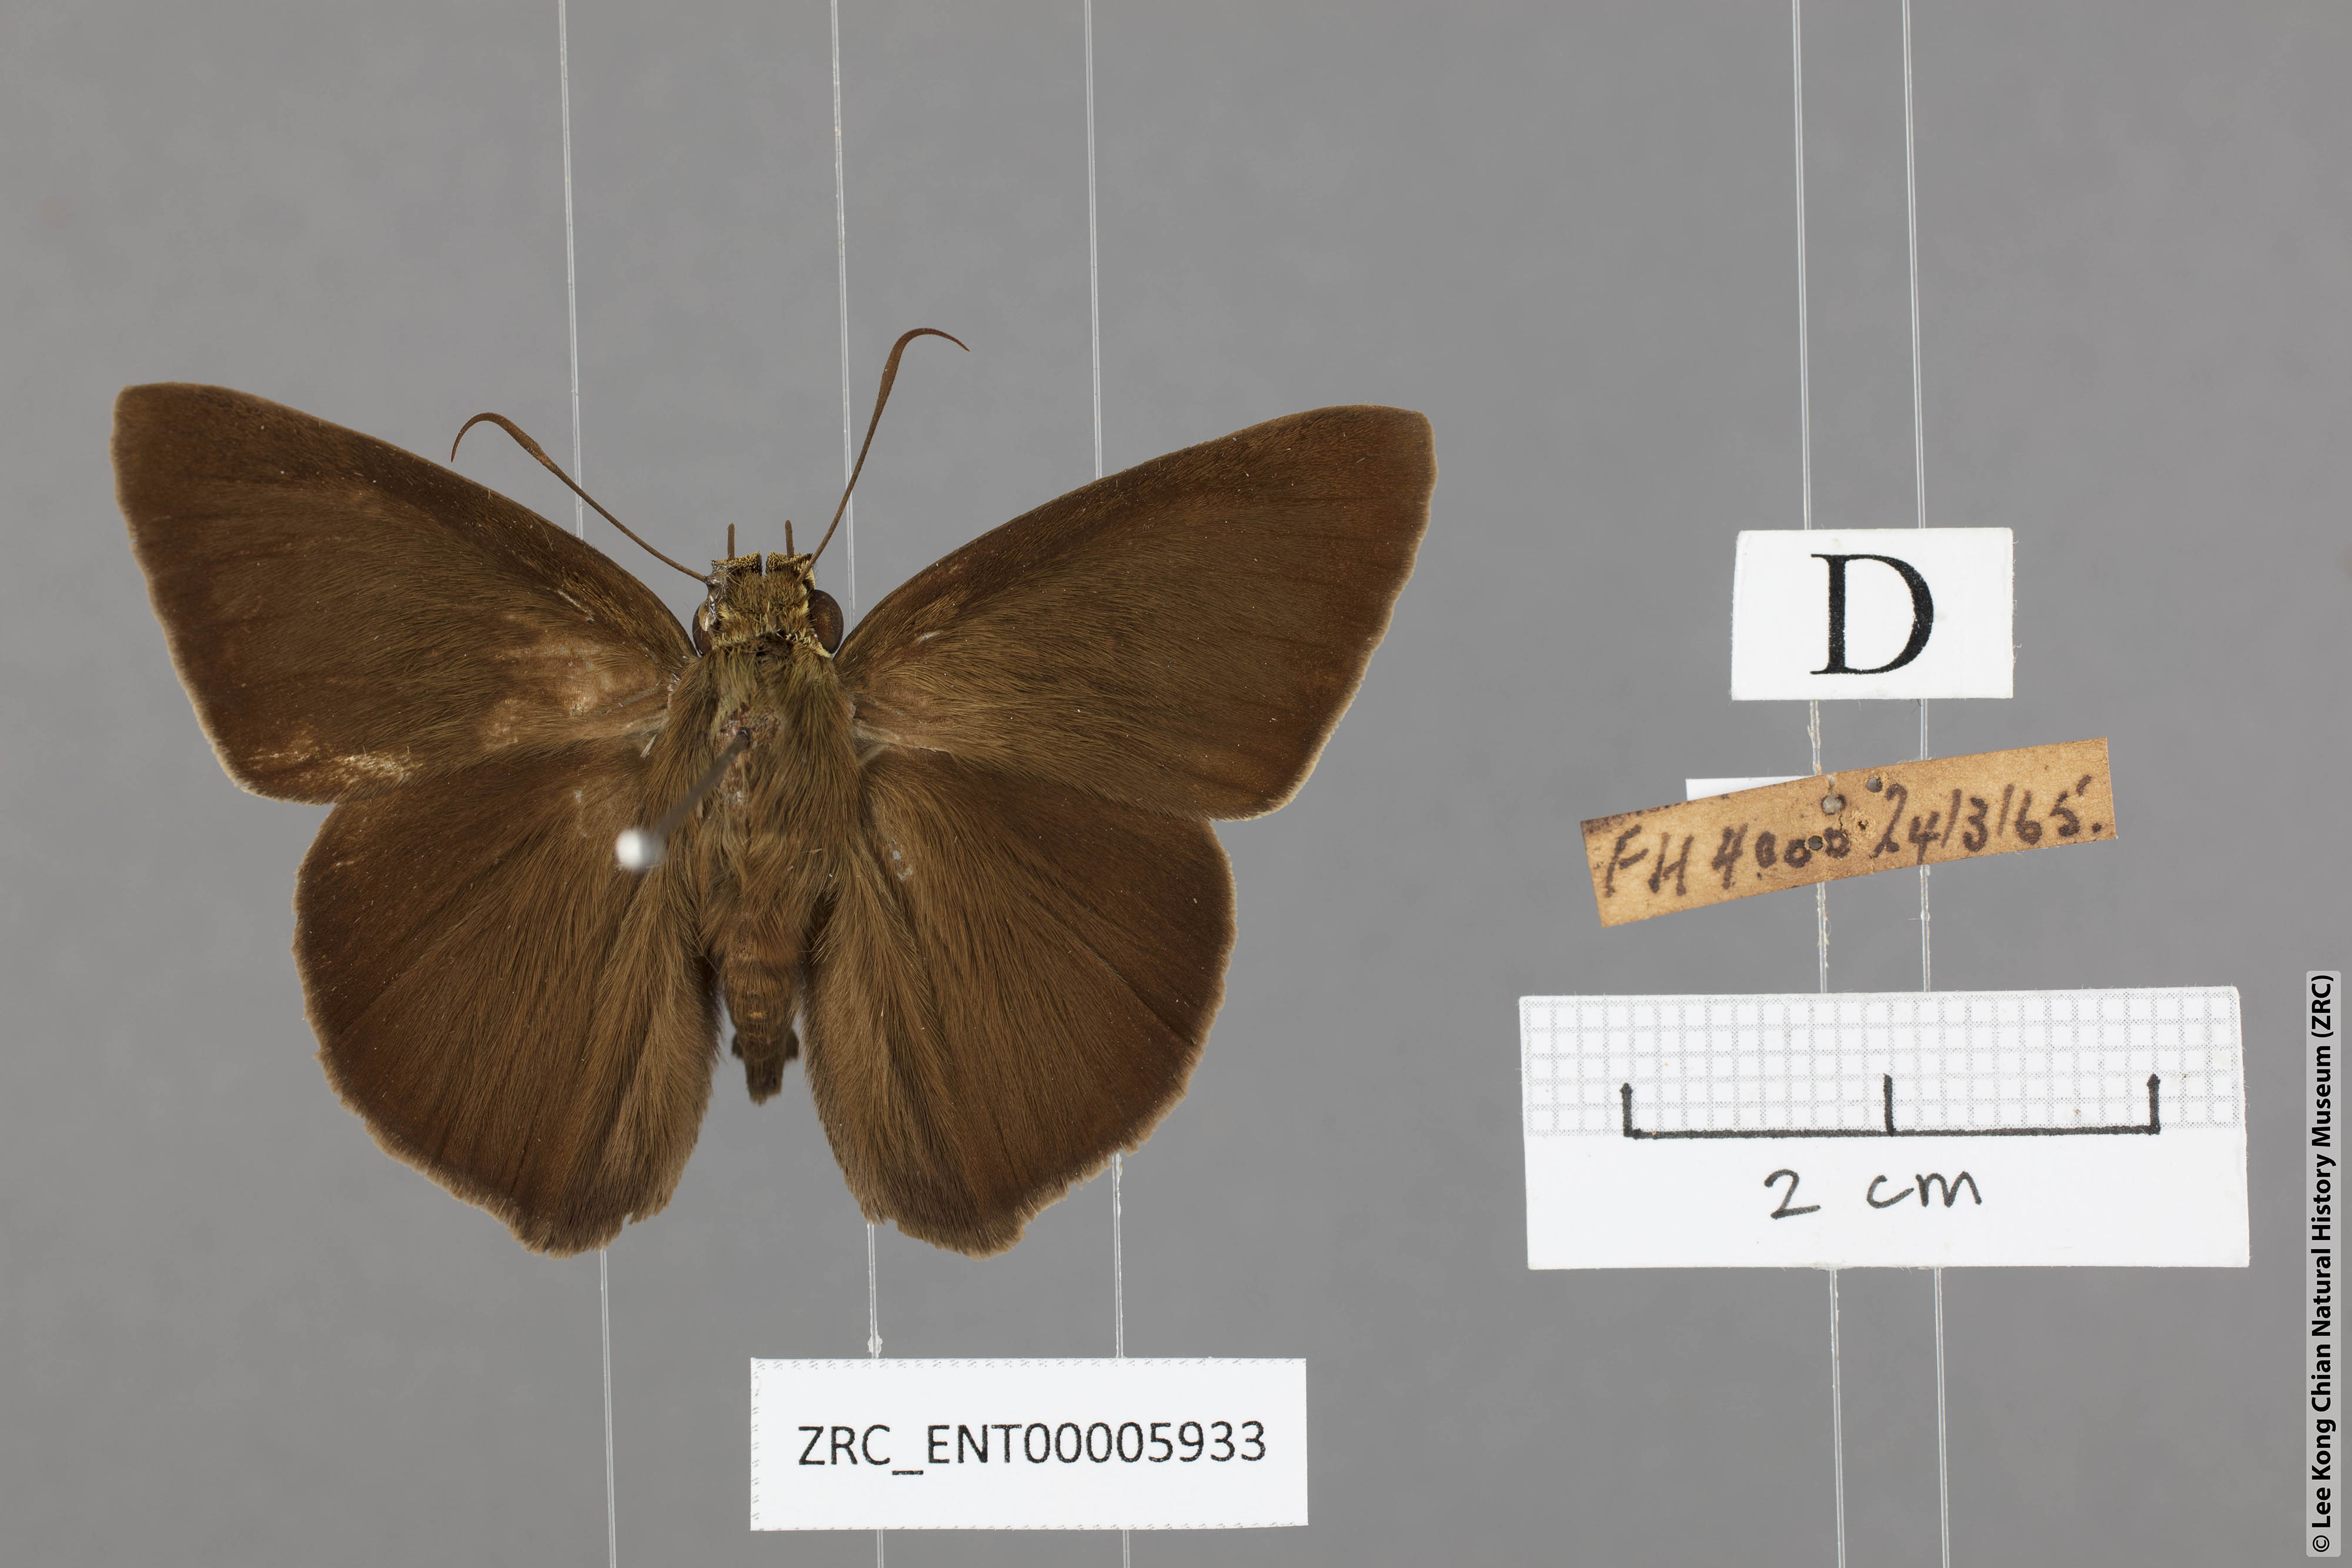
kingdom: Animalia
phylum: Arthropoda
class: Insecta
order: Lepidoptera
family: Hesperiidae
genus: Hasora
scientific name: Hasora zoma
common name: Dark banded awl
